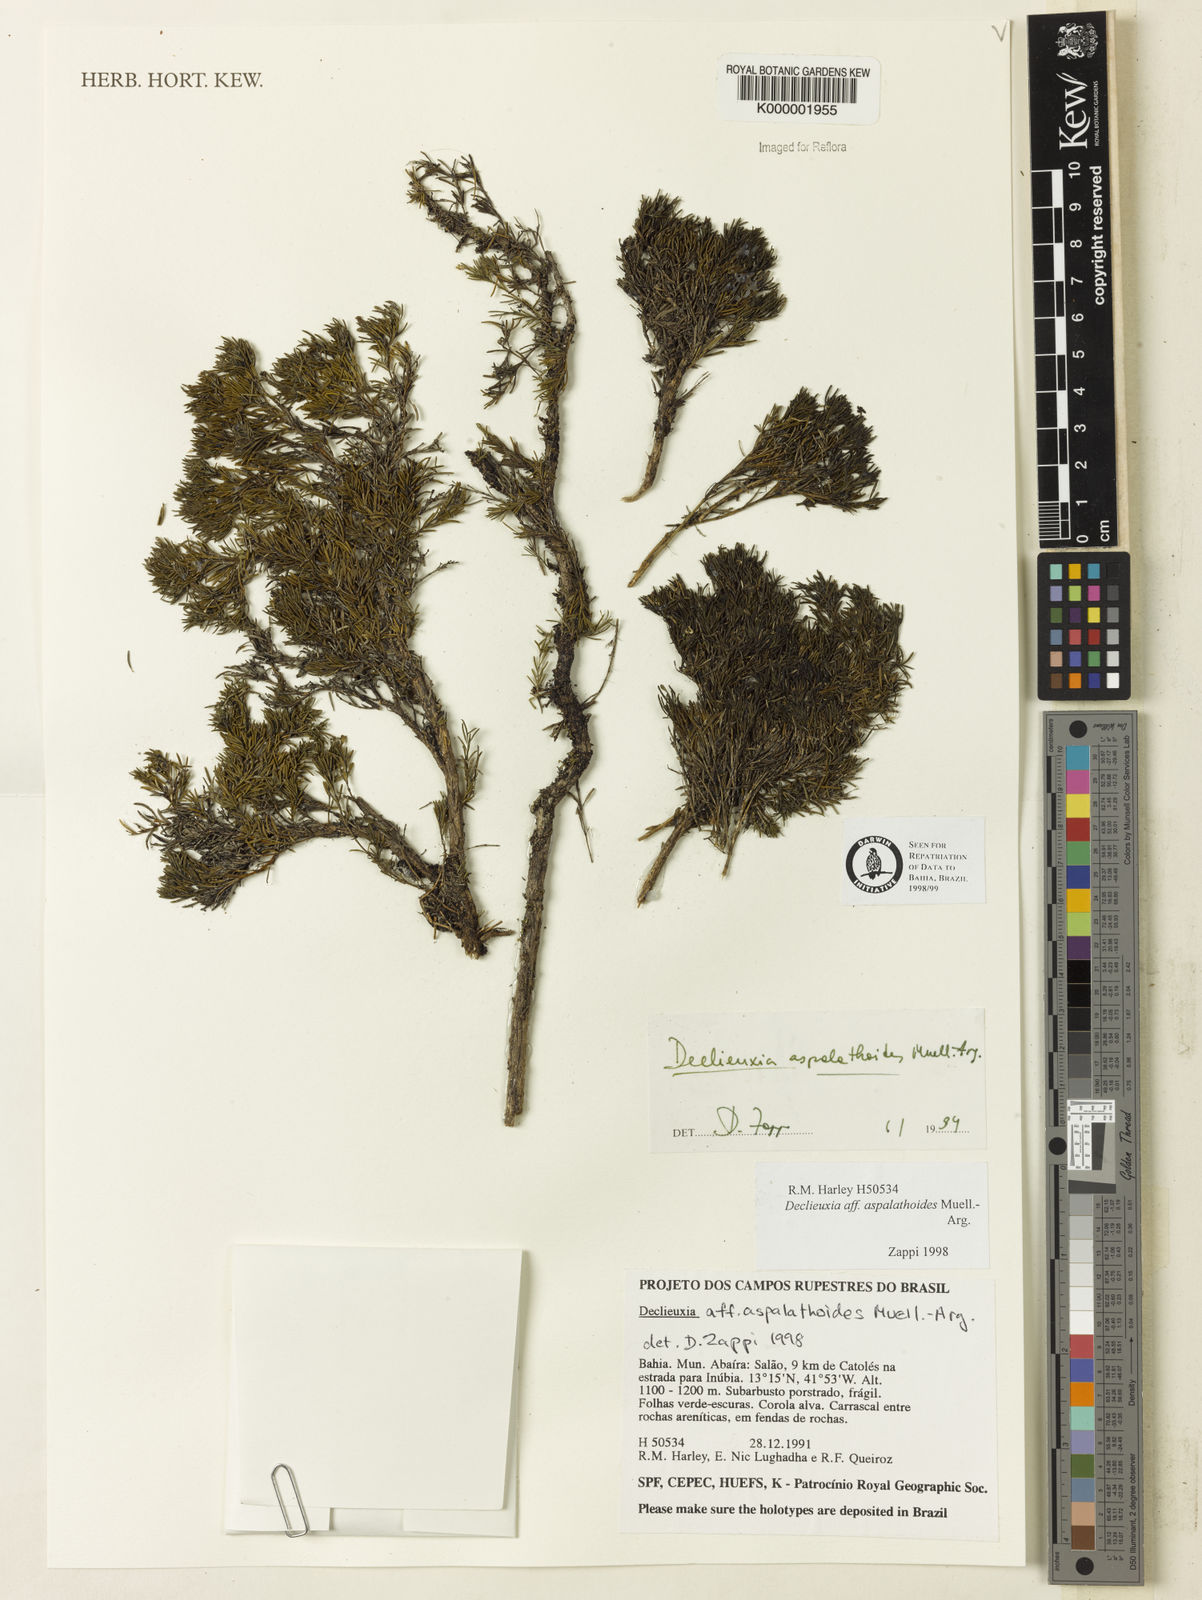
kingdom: Plantae
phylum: Tracheophyta
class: Magnoliopsida
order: Gentianales
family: Rubiaceae
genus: Declieuxia
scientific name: Declieuxia aspalathoides
